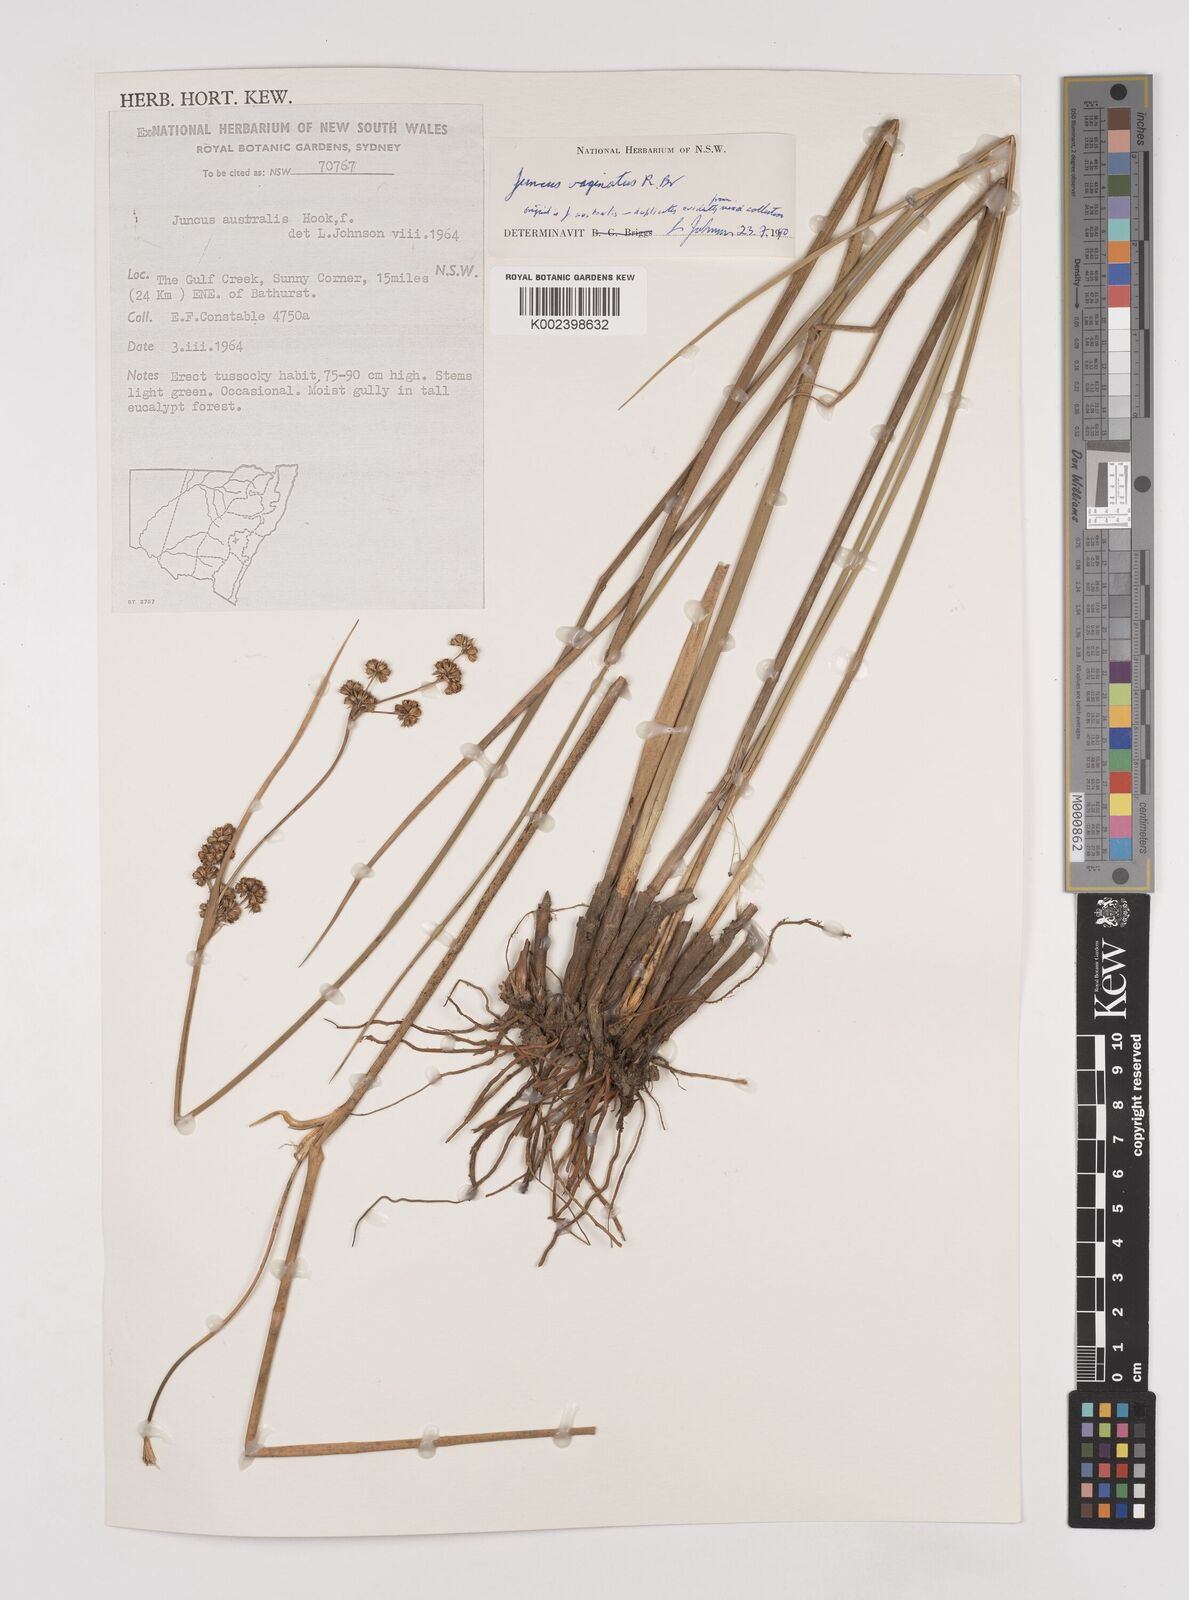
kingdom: Plantae
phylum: Tracheophyta
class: Liliopsida
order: Poales
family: Juncaceae
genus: Juncus
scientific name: Juncus vaginatus
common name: Clustered rush
